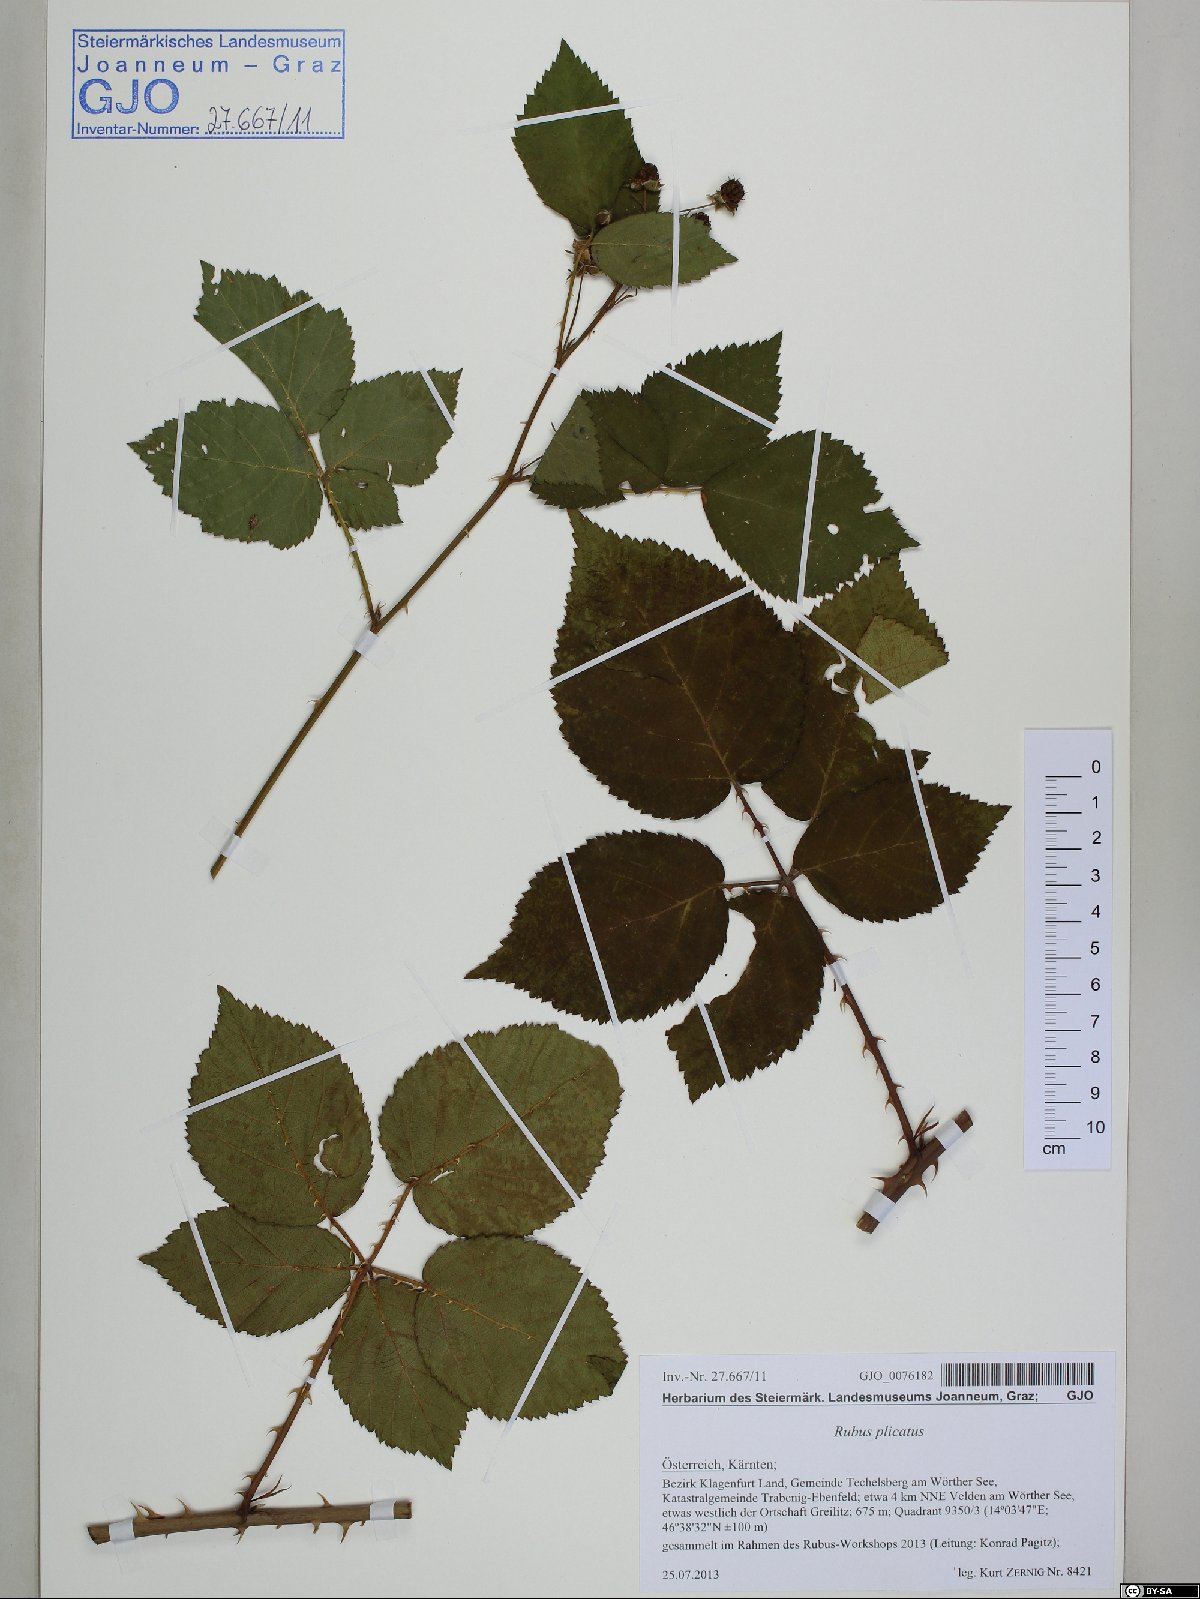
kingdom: Plantae
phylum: Tracheophyta
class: Magnoliopsida
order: Rosales
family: Rosaceae
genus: Rubus
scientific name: Rubus plicatus
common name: Plaited-leaved bramble
